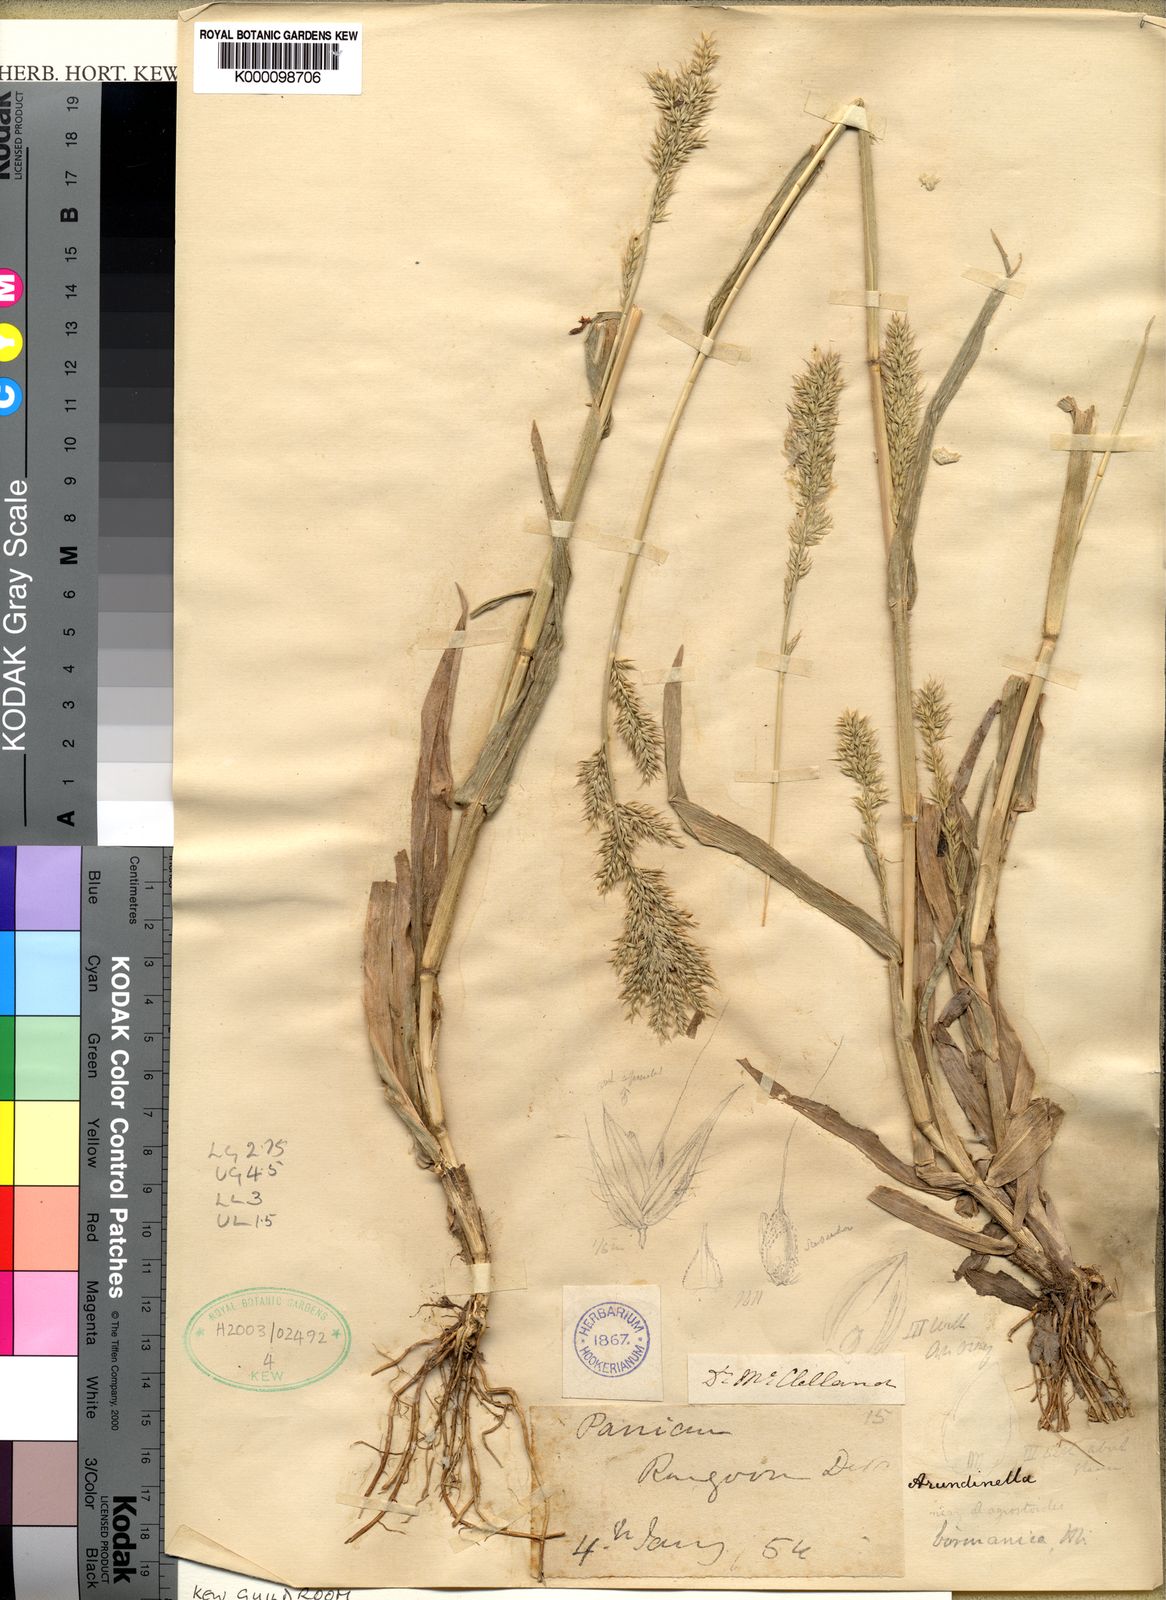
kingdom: Plantae
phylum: Tracheophyta
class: Liliopsida
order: Poales
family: Poaceae
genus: Arundinella
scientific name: Arundinella holcoides
